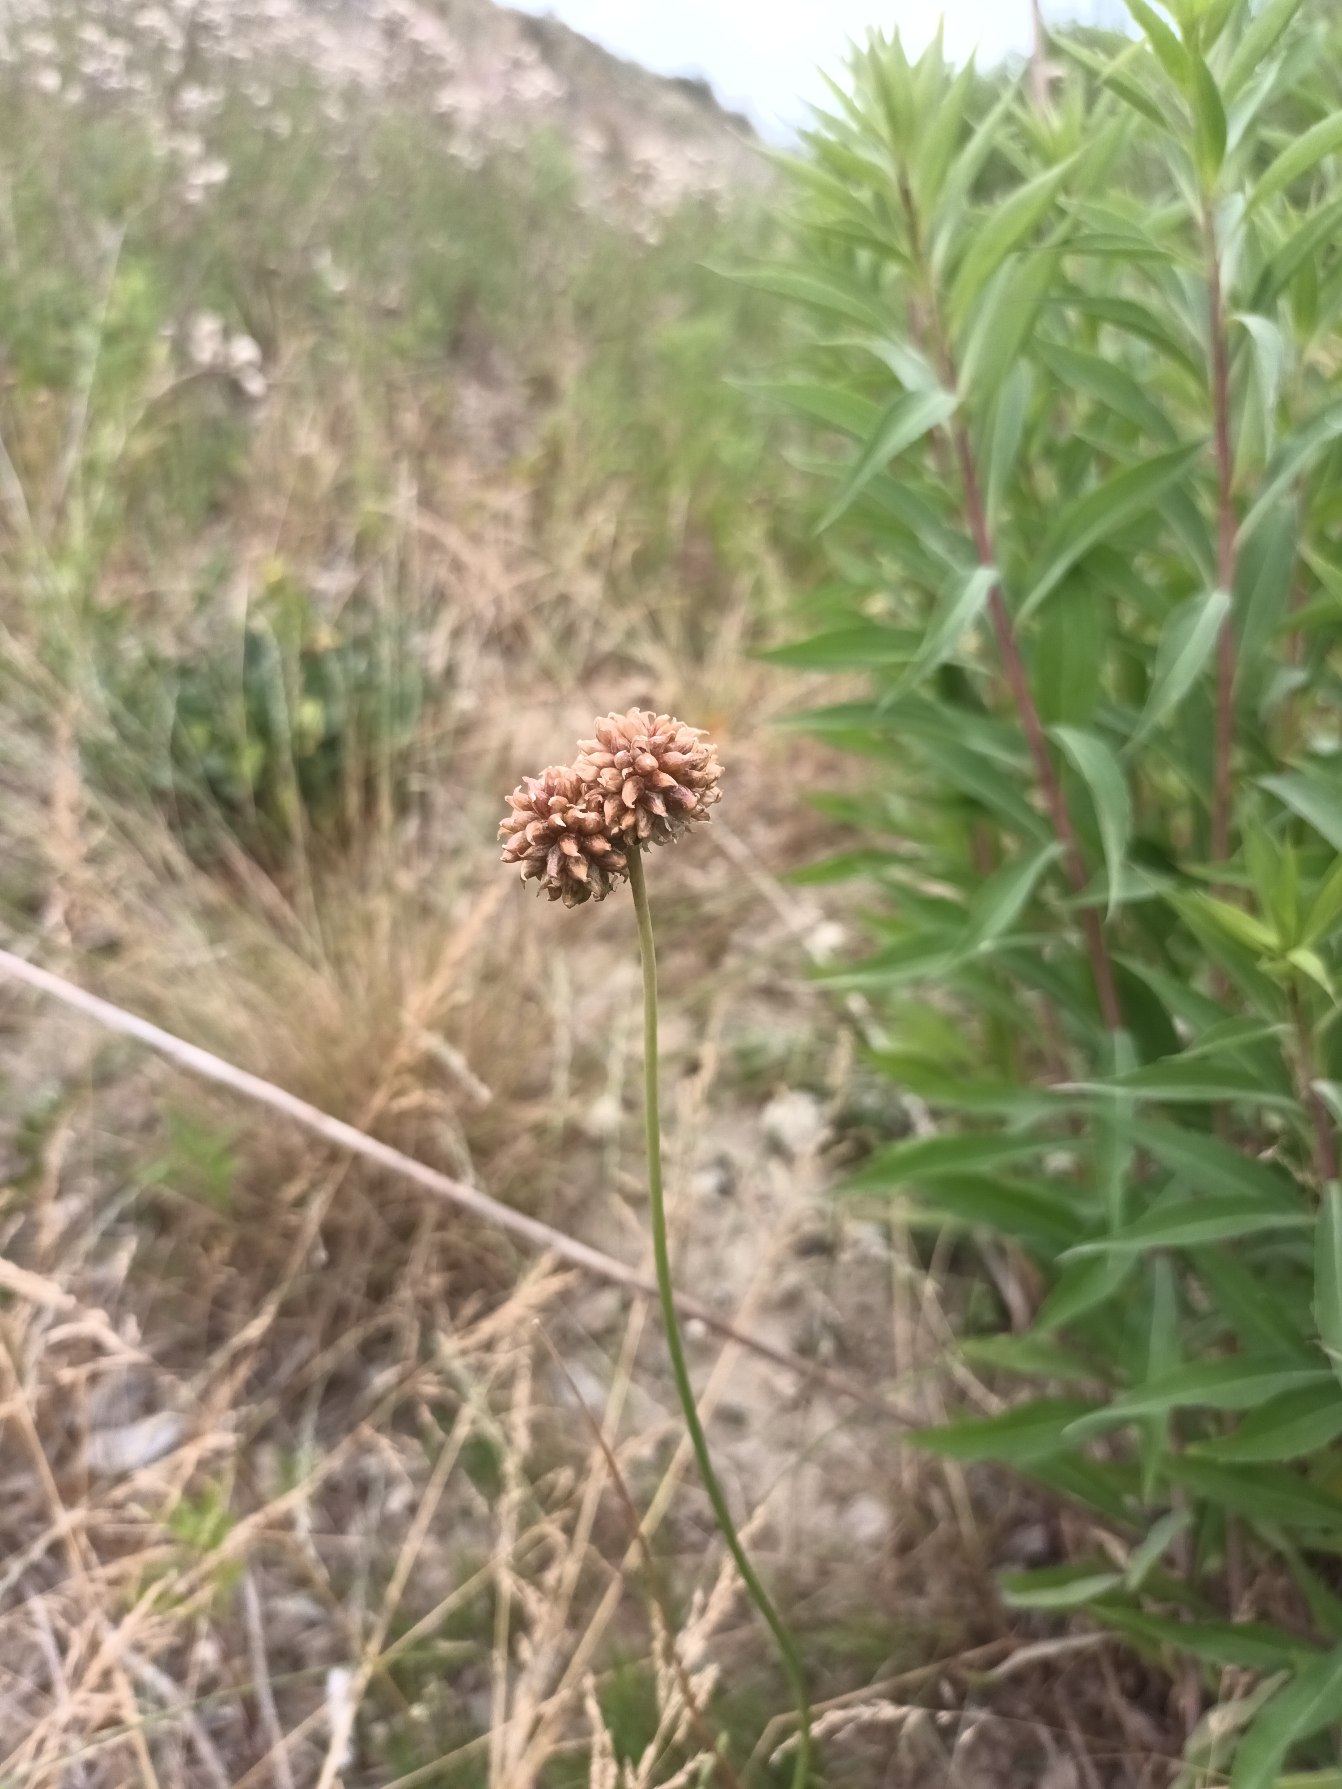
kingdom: Plantae
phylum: Tracheophyta
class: Liliopsida
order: Asparagales
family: Amaryllidaceae
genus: Allium
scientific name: Allium vineale
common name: Sand-løg
